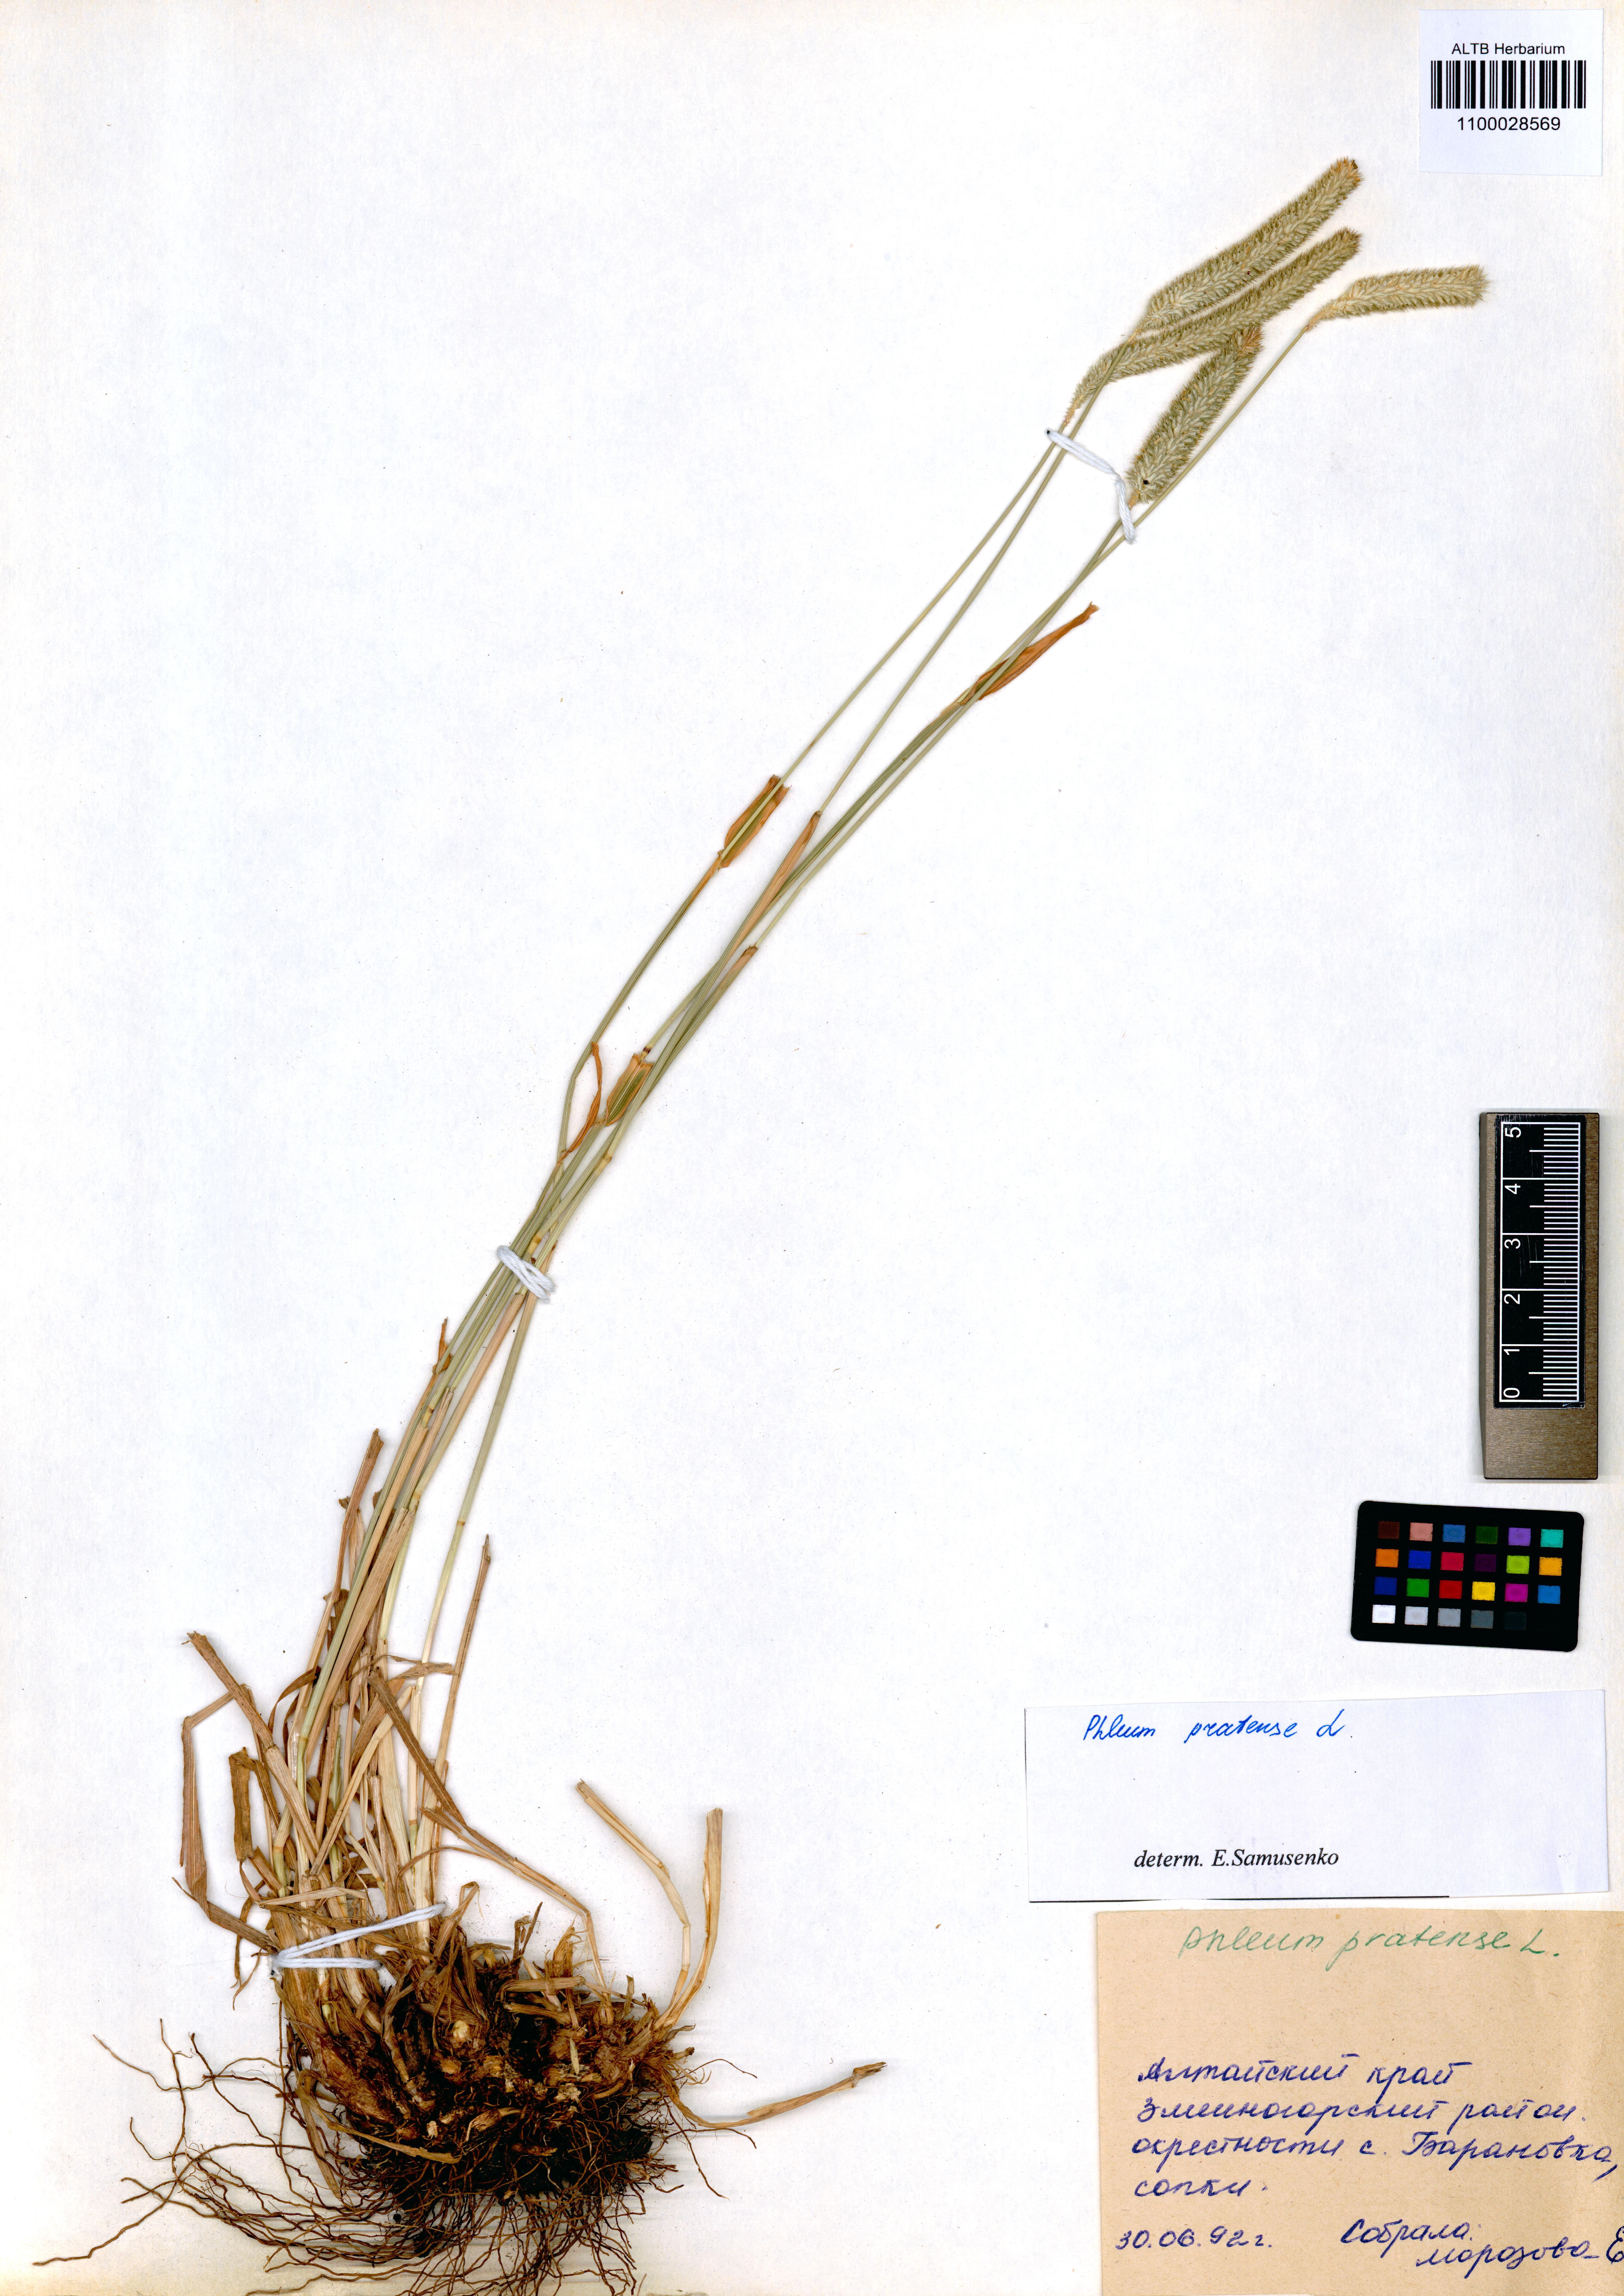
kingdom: Plantae
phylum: Tracheophyta
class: Liliopsida
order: Poales
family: Poaceae
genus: Phleum
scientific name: Phleum pratense
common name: Timothy grass
